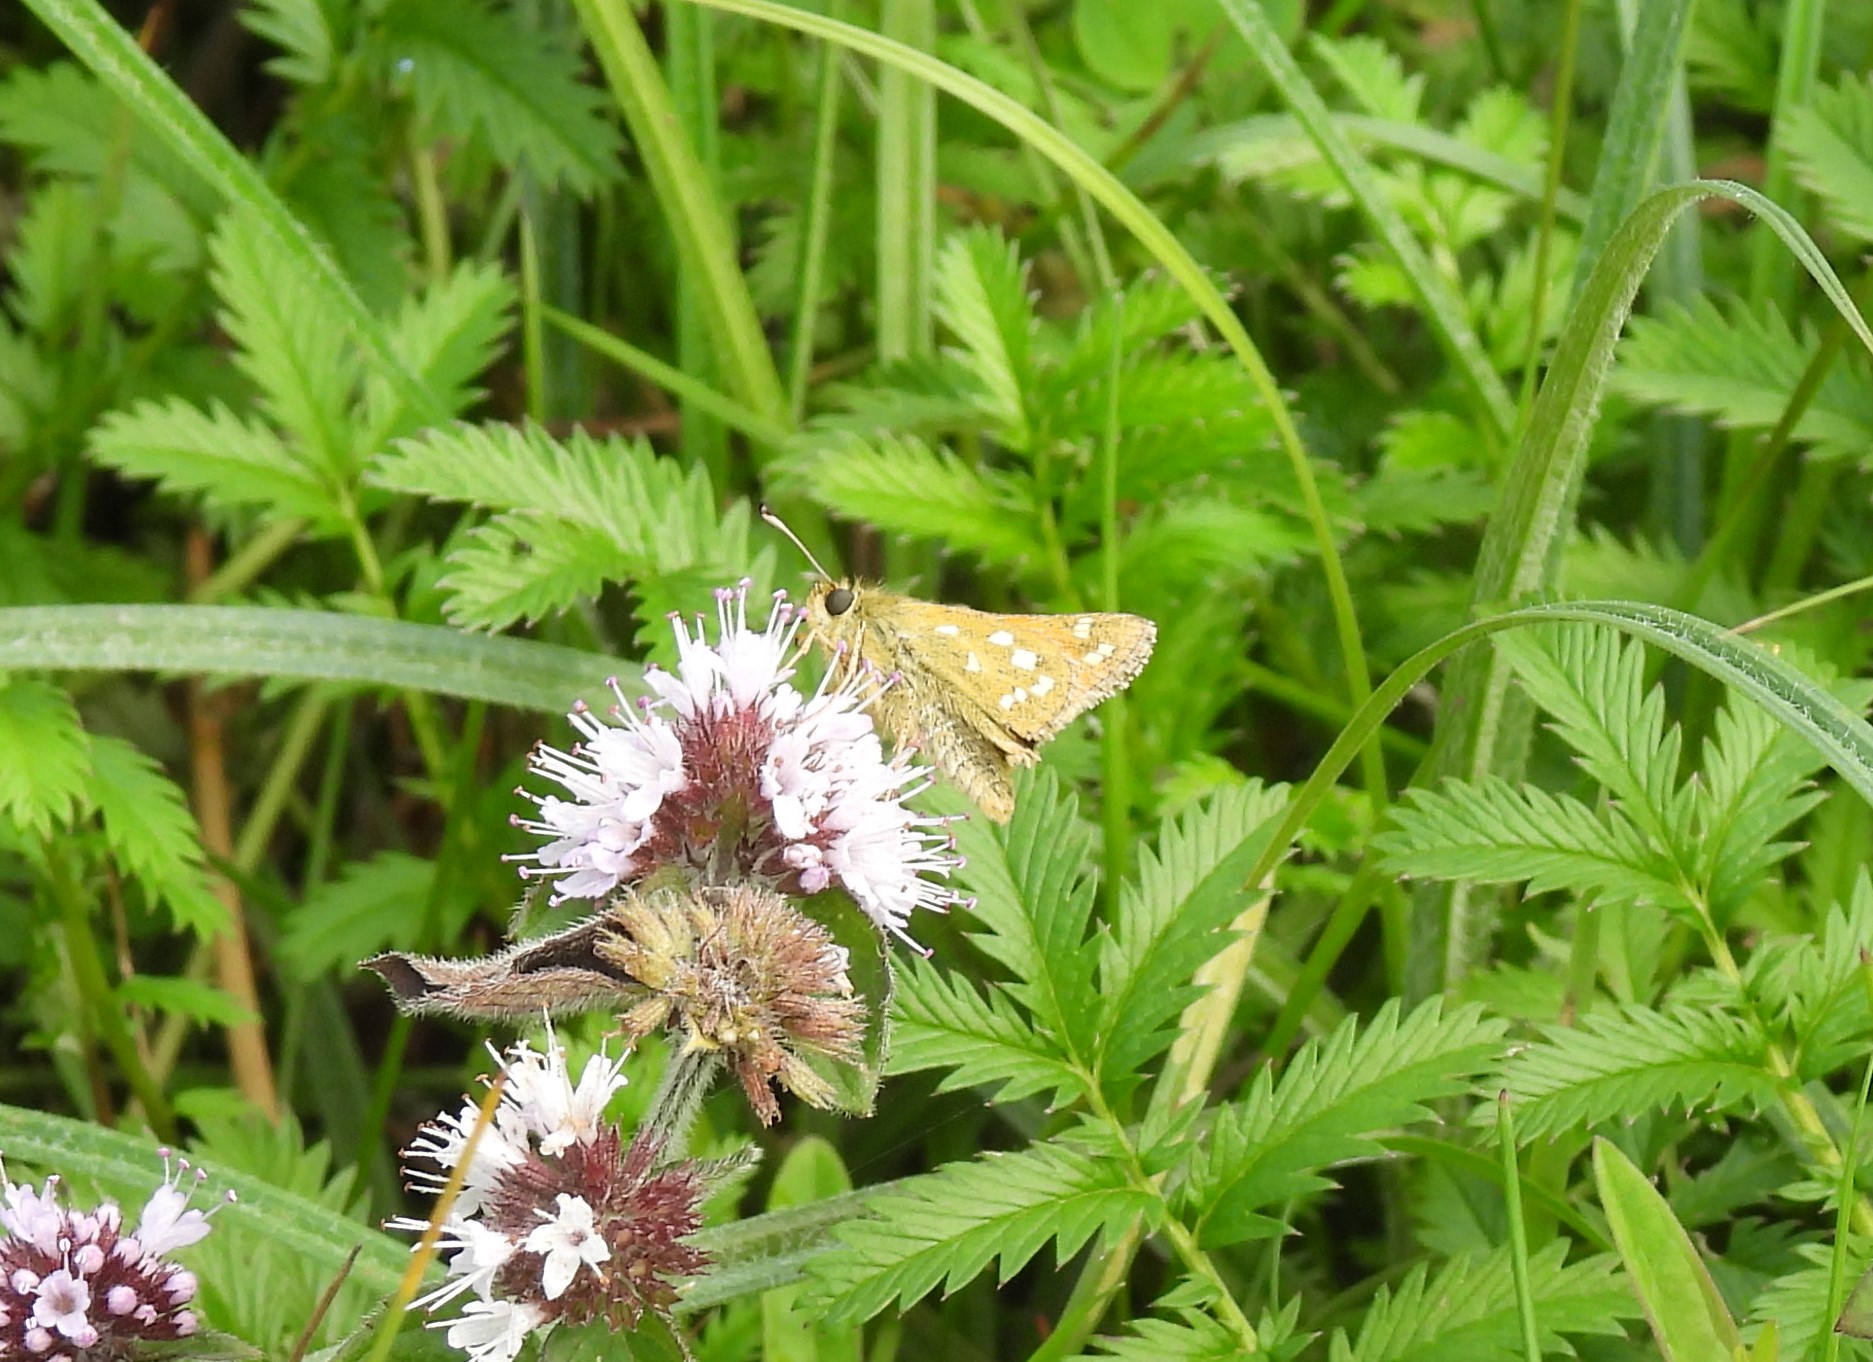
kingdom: Animalia
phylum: Arthropoda
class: Insecta
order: Lepidoptera
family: Hesperiidae
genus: Hesperia
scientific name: Hesperia comma
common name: Kommabredpande
